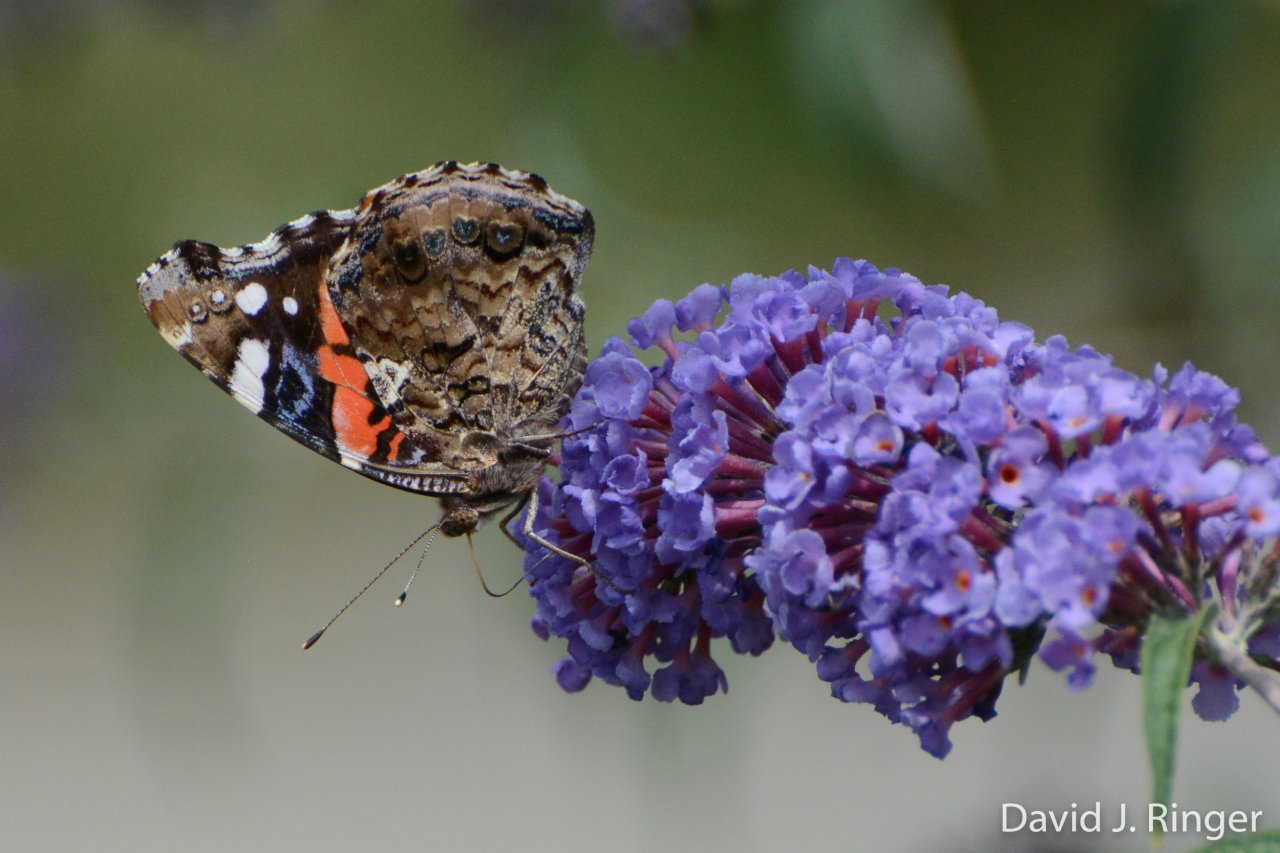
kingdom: Animalia
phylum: Arthropoda
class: Insecta
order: Lepidoptera
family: Nymphalidae
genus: Vanessa
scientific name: Vanessa atalanta
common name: Red Admiral
